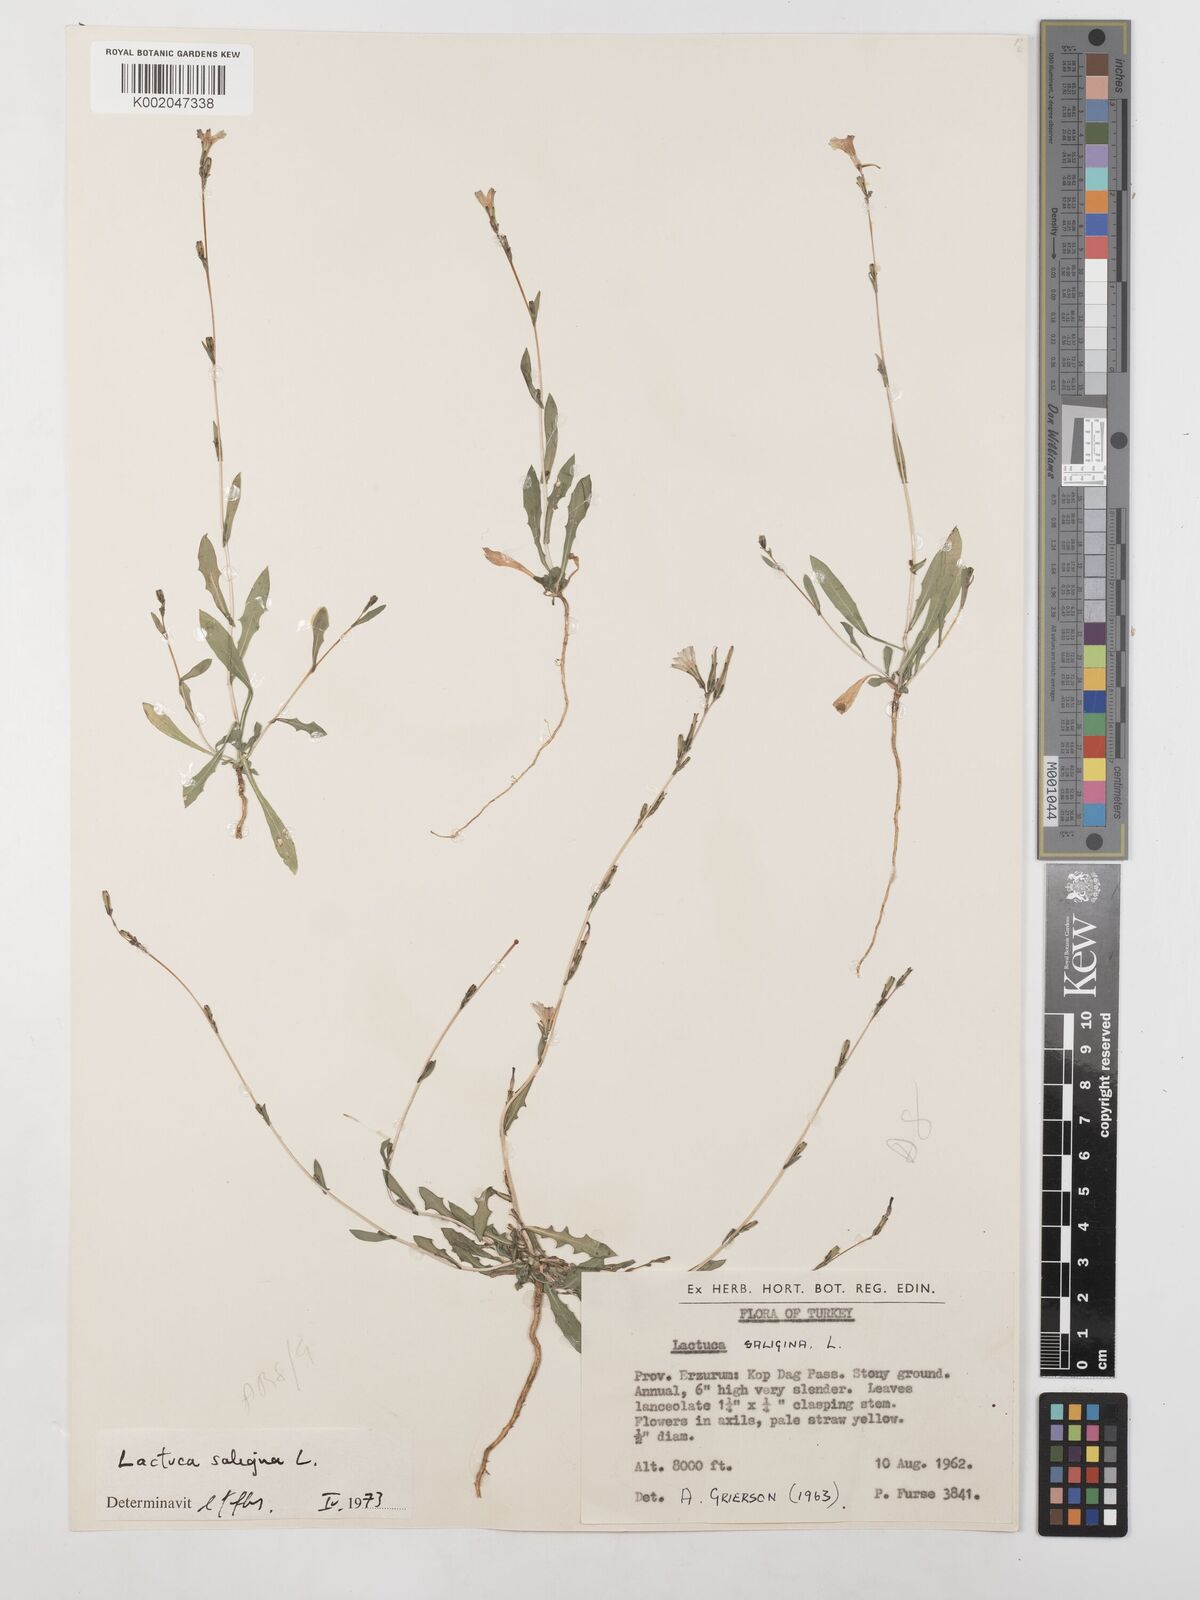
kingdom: Plantae
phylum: Tracheophyta
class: Magnoliopsida
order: Asterales
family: Asteraceae
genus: Lactuca
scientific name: Lactuca saligna
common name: Wild lettuce
